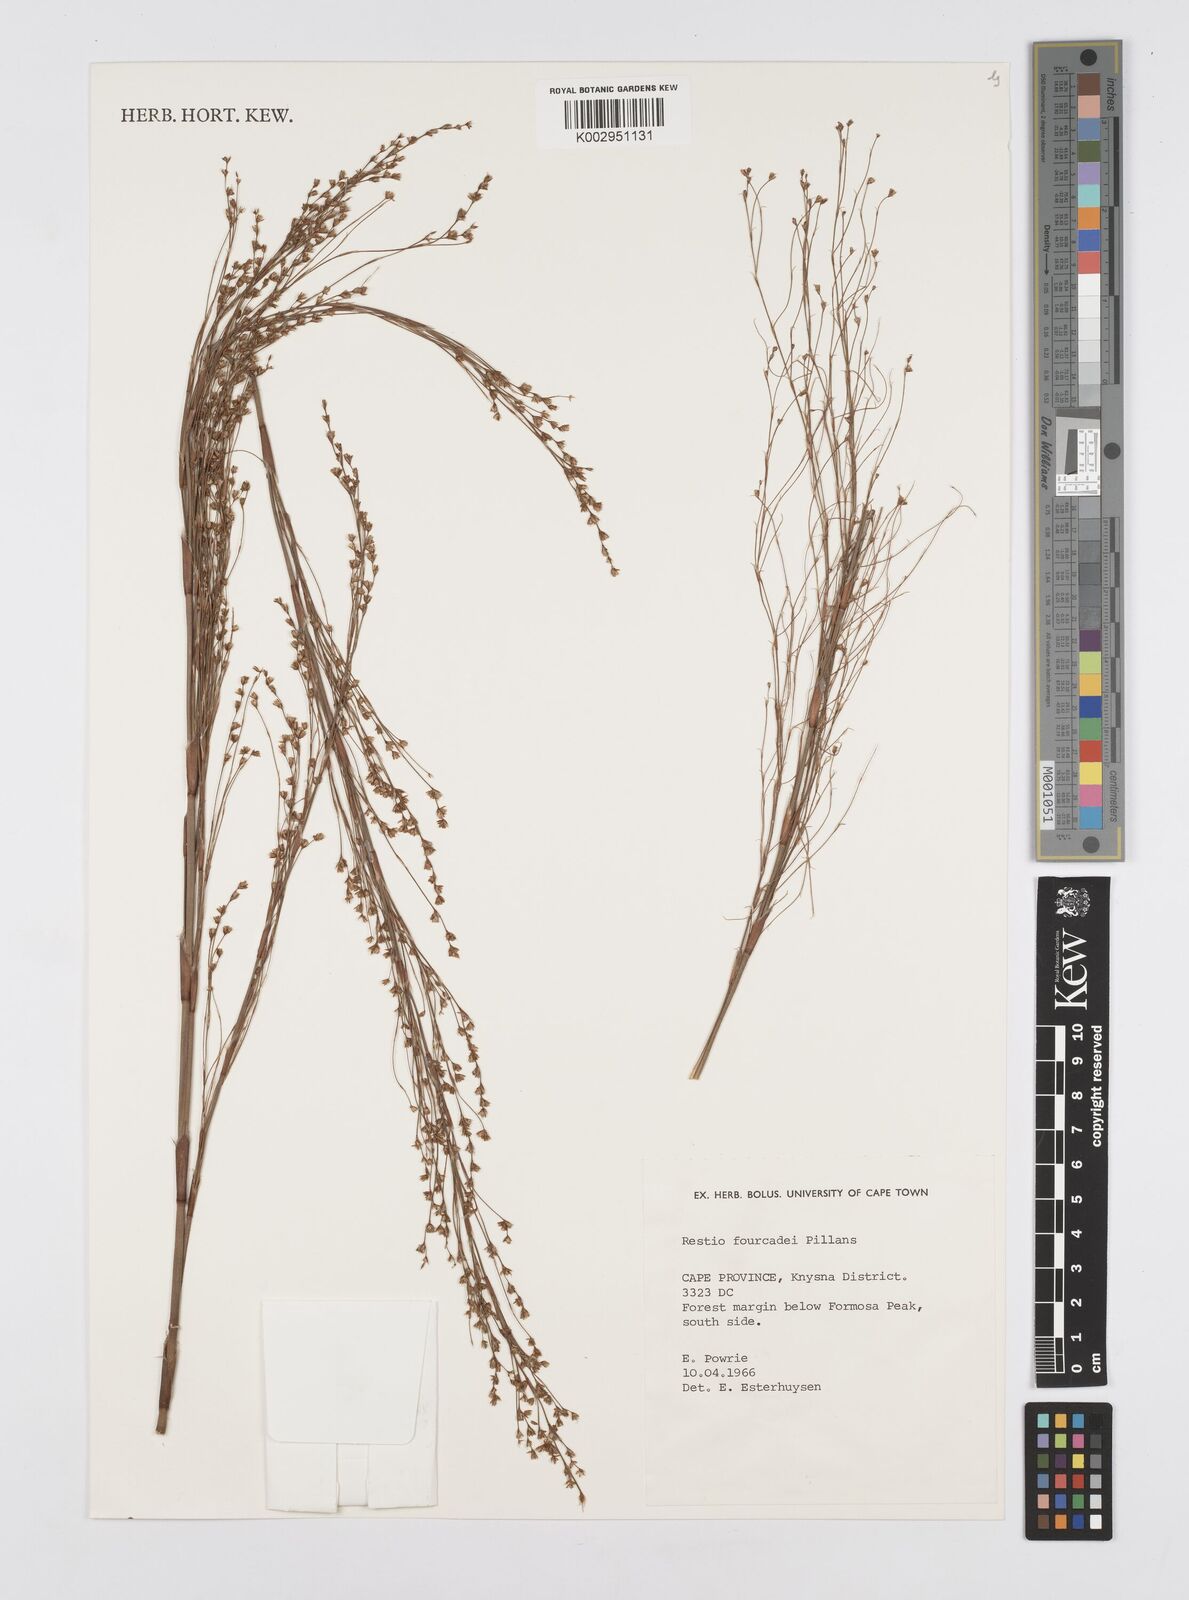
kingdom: Plantae
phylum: Tracheophyta
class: Liliopsida
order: Poales
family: Restionaceae
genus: Restio
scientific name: Restio fourcadei
